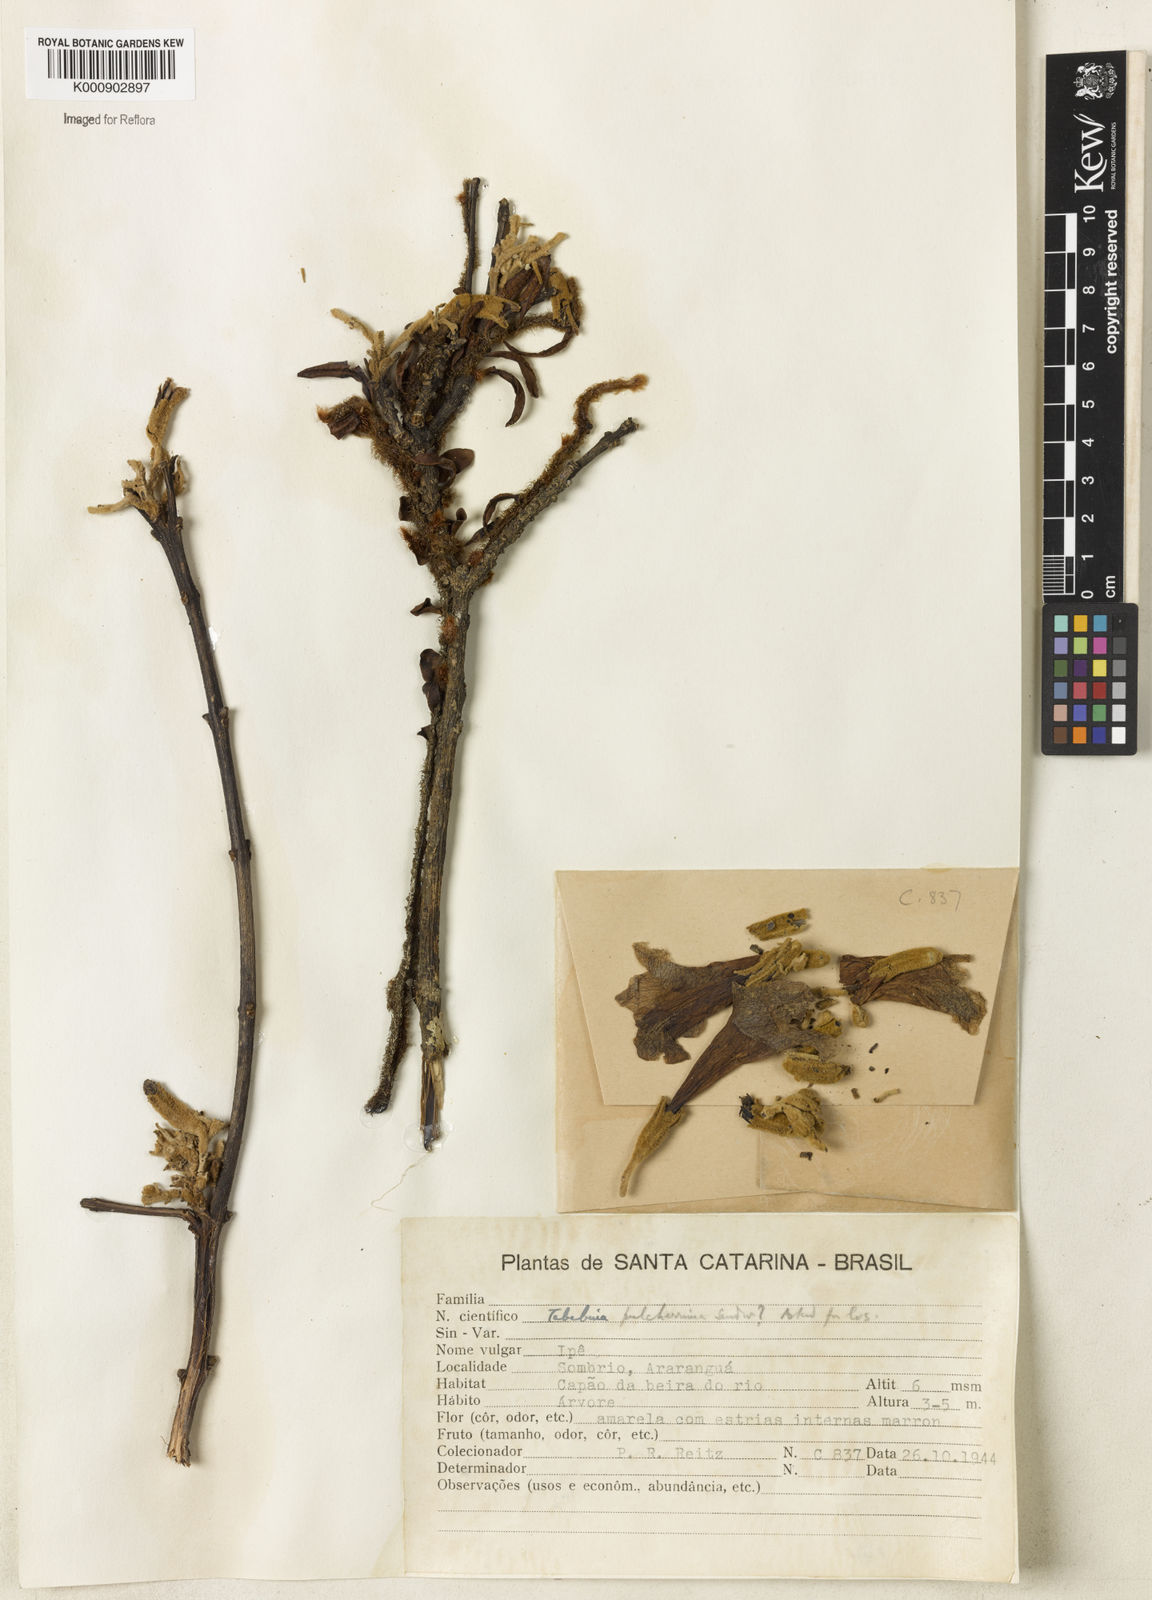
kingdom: Plantae
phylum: Tracheophyta
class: Magnoliopsida
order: Lamiales
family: Bignoniaceae
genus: Handroanthus
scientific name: Handroanthus pulcherrimus
